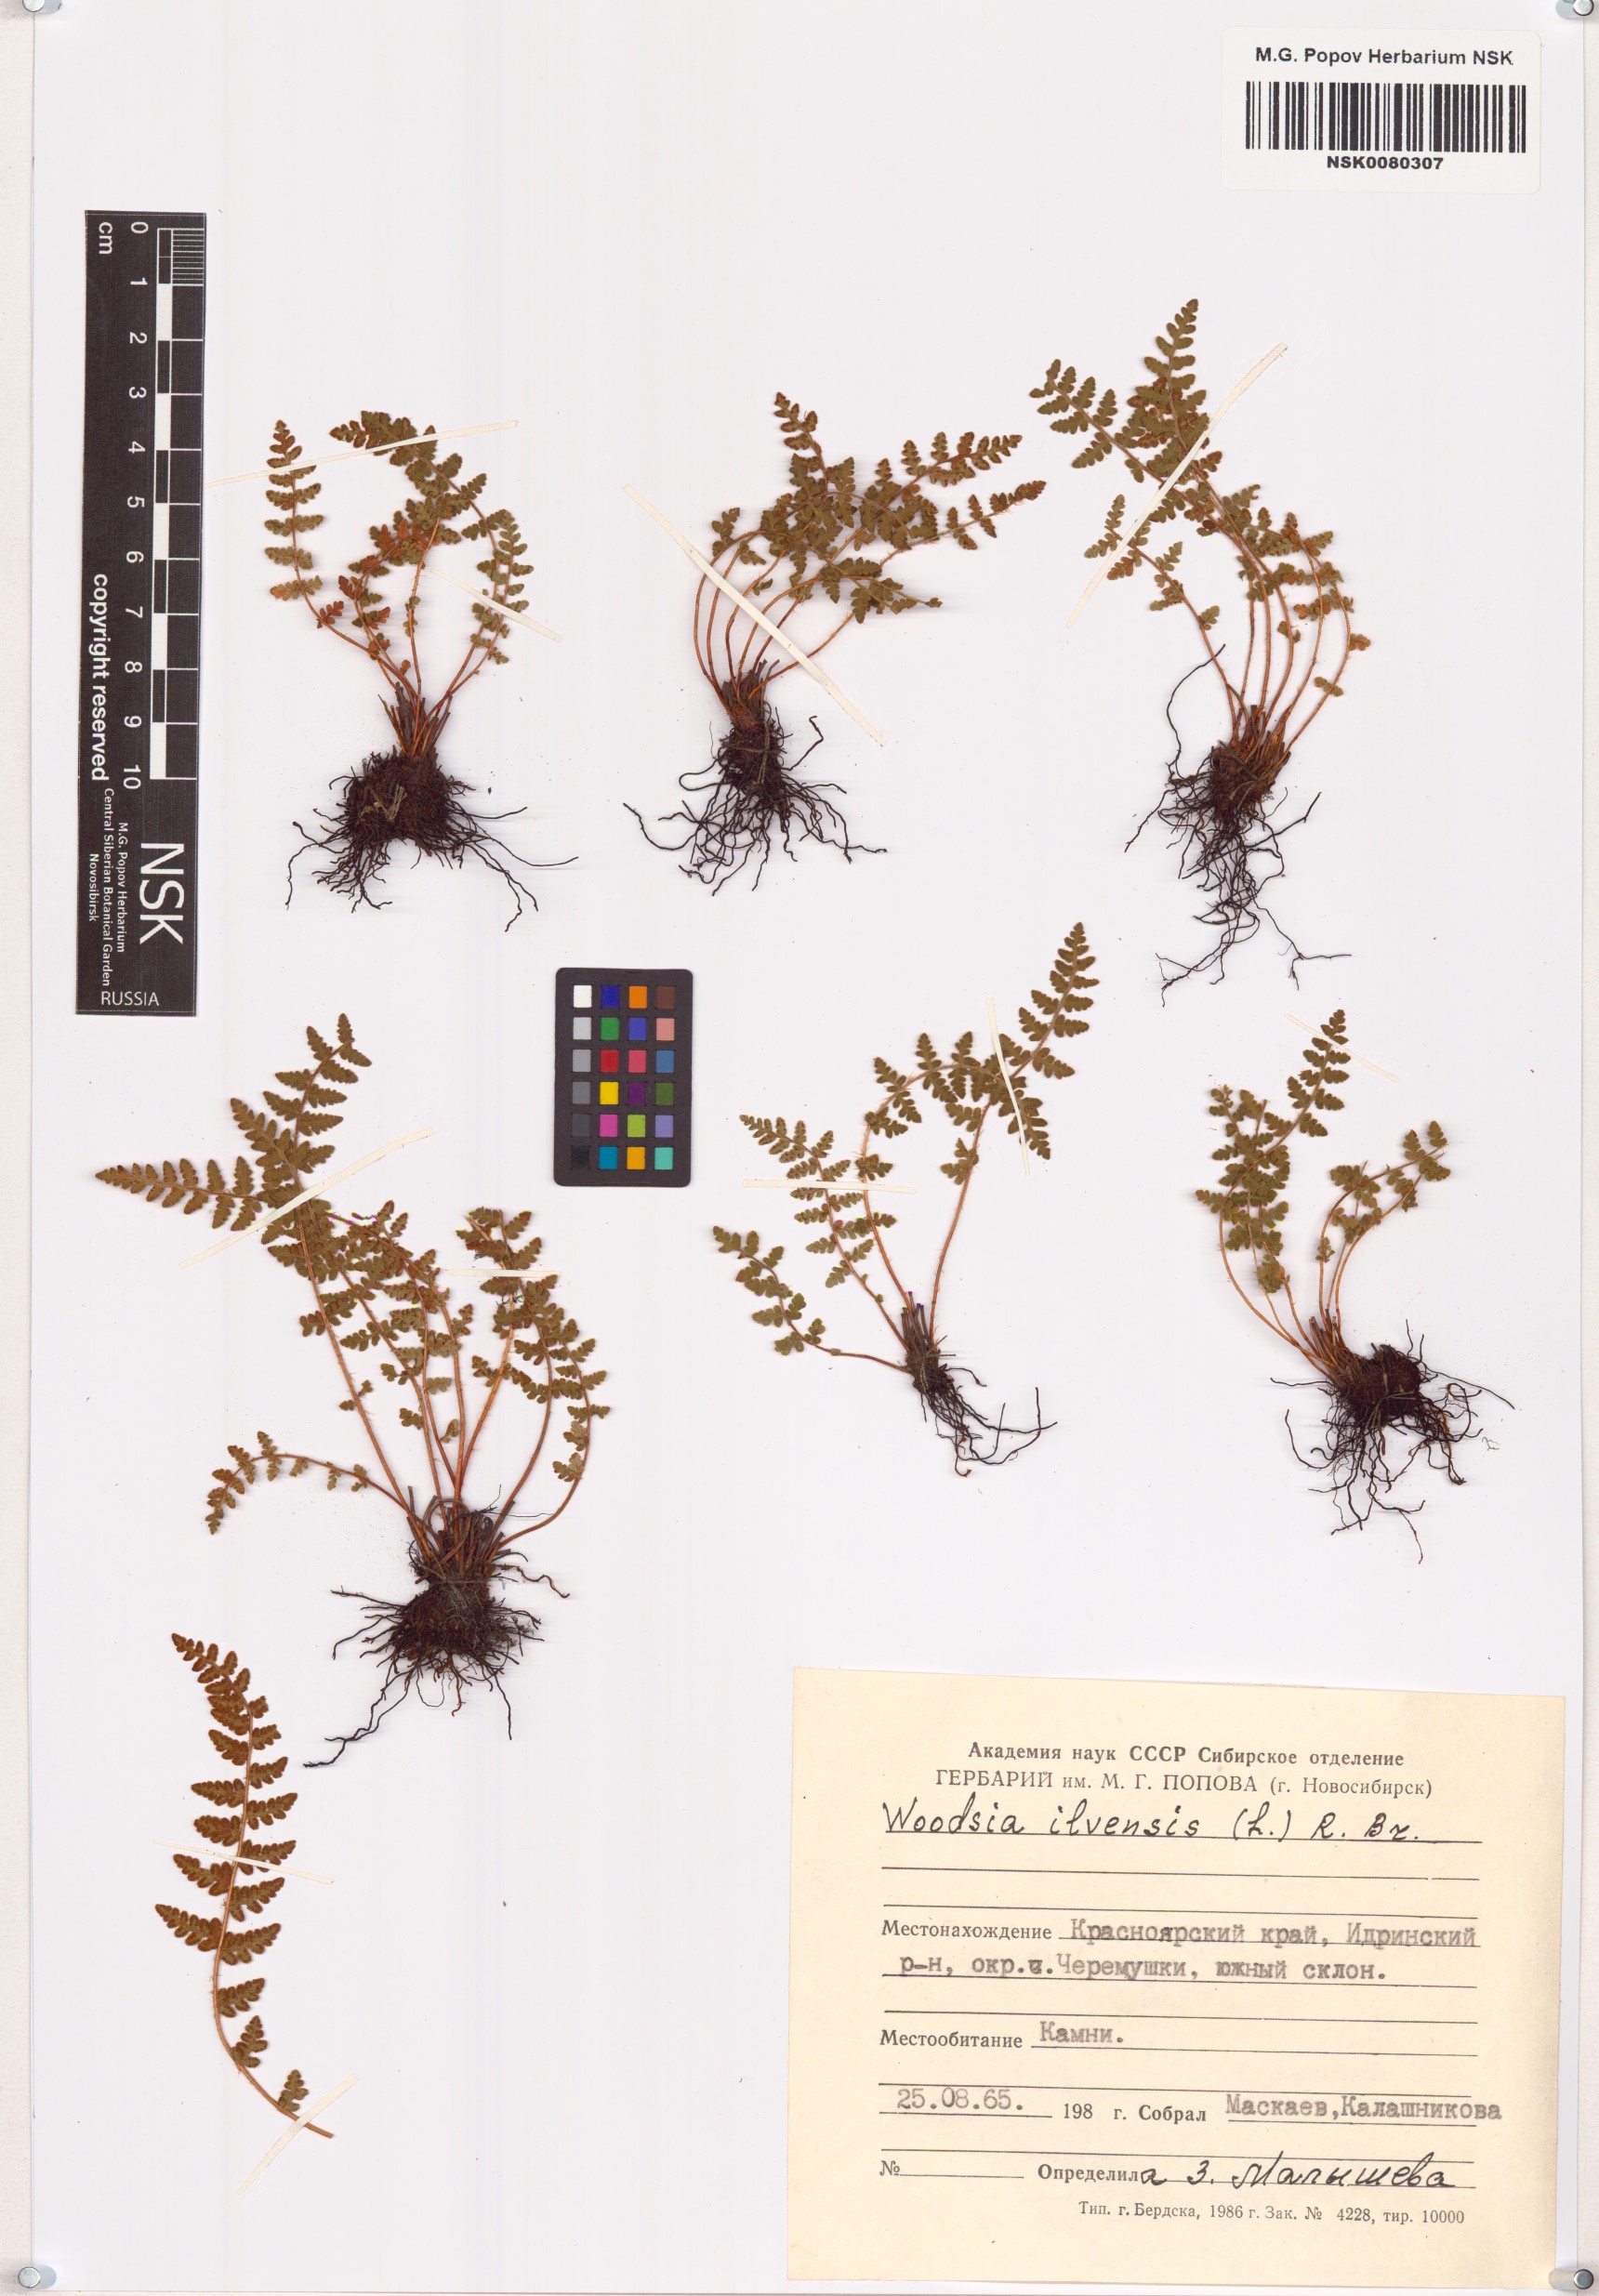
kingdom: Plantae
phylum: Tracheophyta
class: Polypodiopsida
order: Polypodiales
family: Woodsiaceae
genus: Woodsia
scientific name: Woodsia ilvensis
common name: Fragrant woodsia
